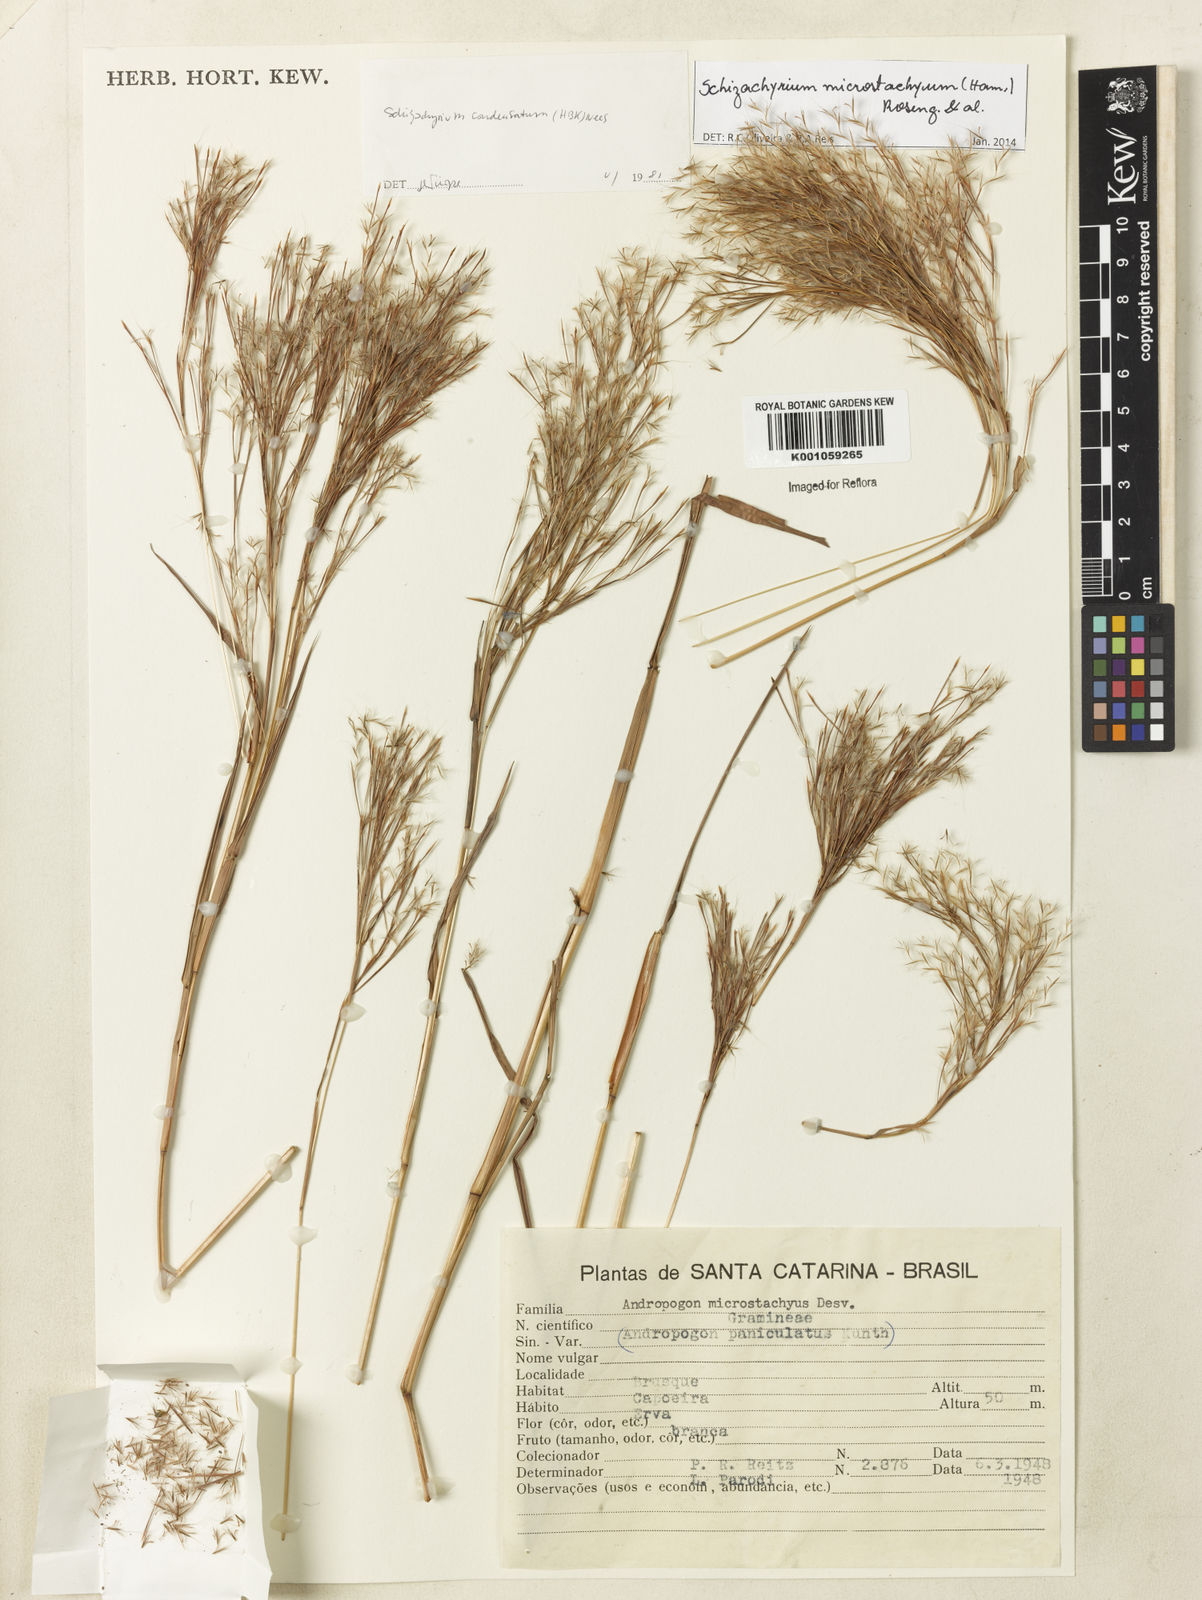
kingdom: Plantae
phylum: Tracheophyta
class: Liliopsida
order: Poales
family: Poaceae
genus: Schizachyrium
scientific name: Schizachyrium
